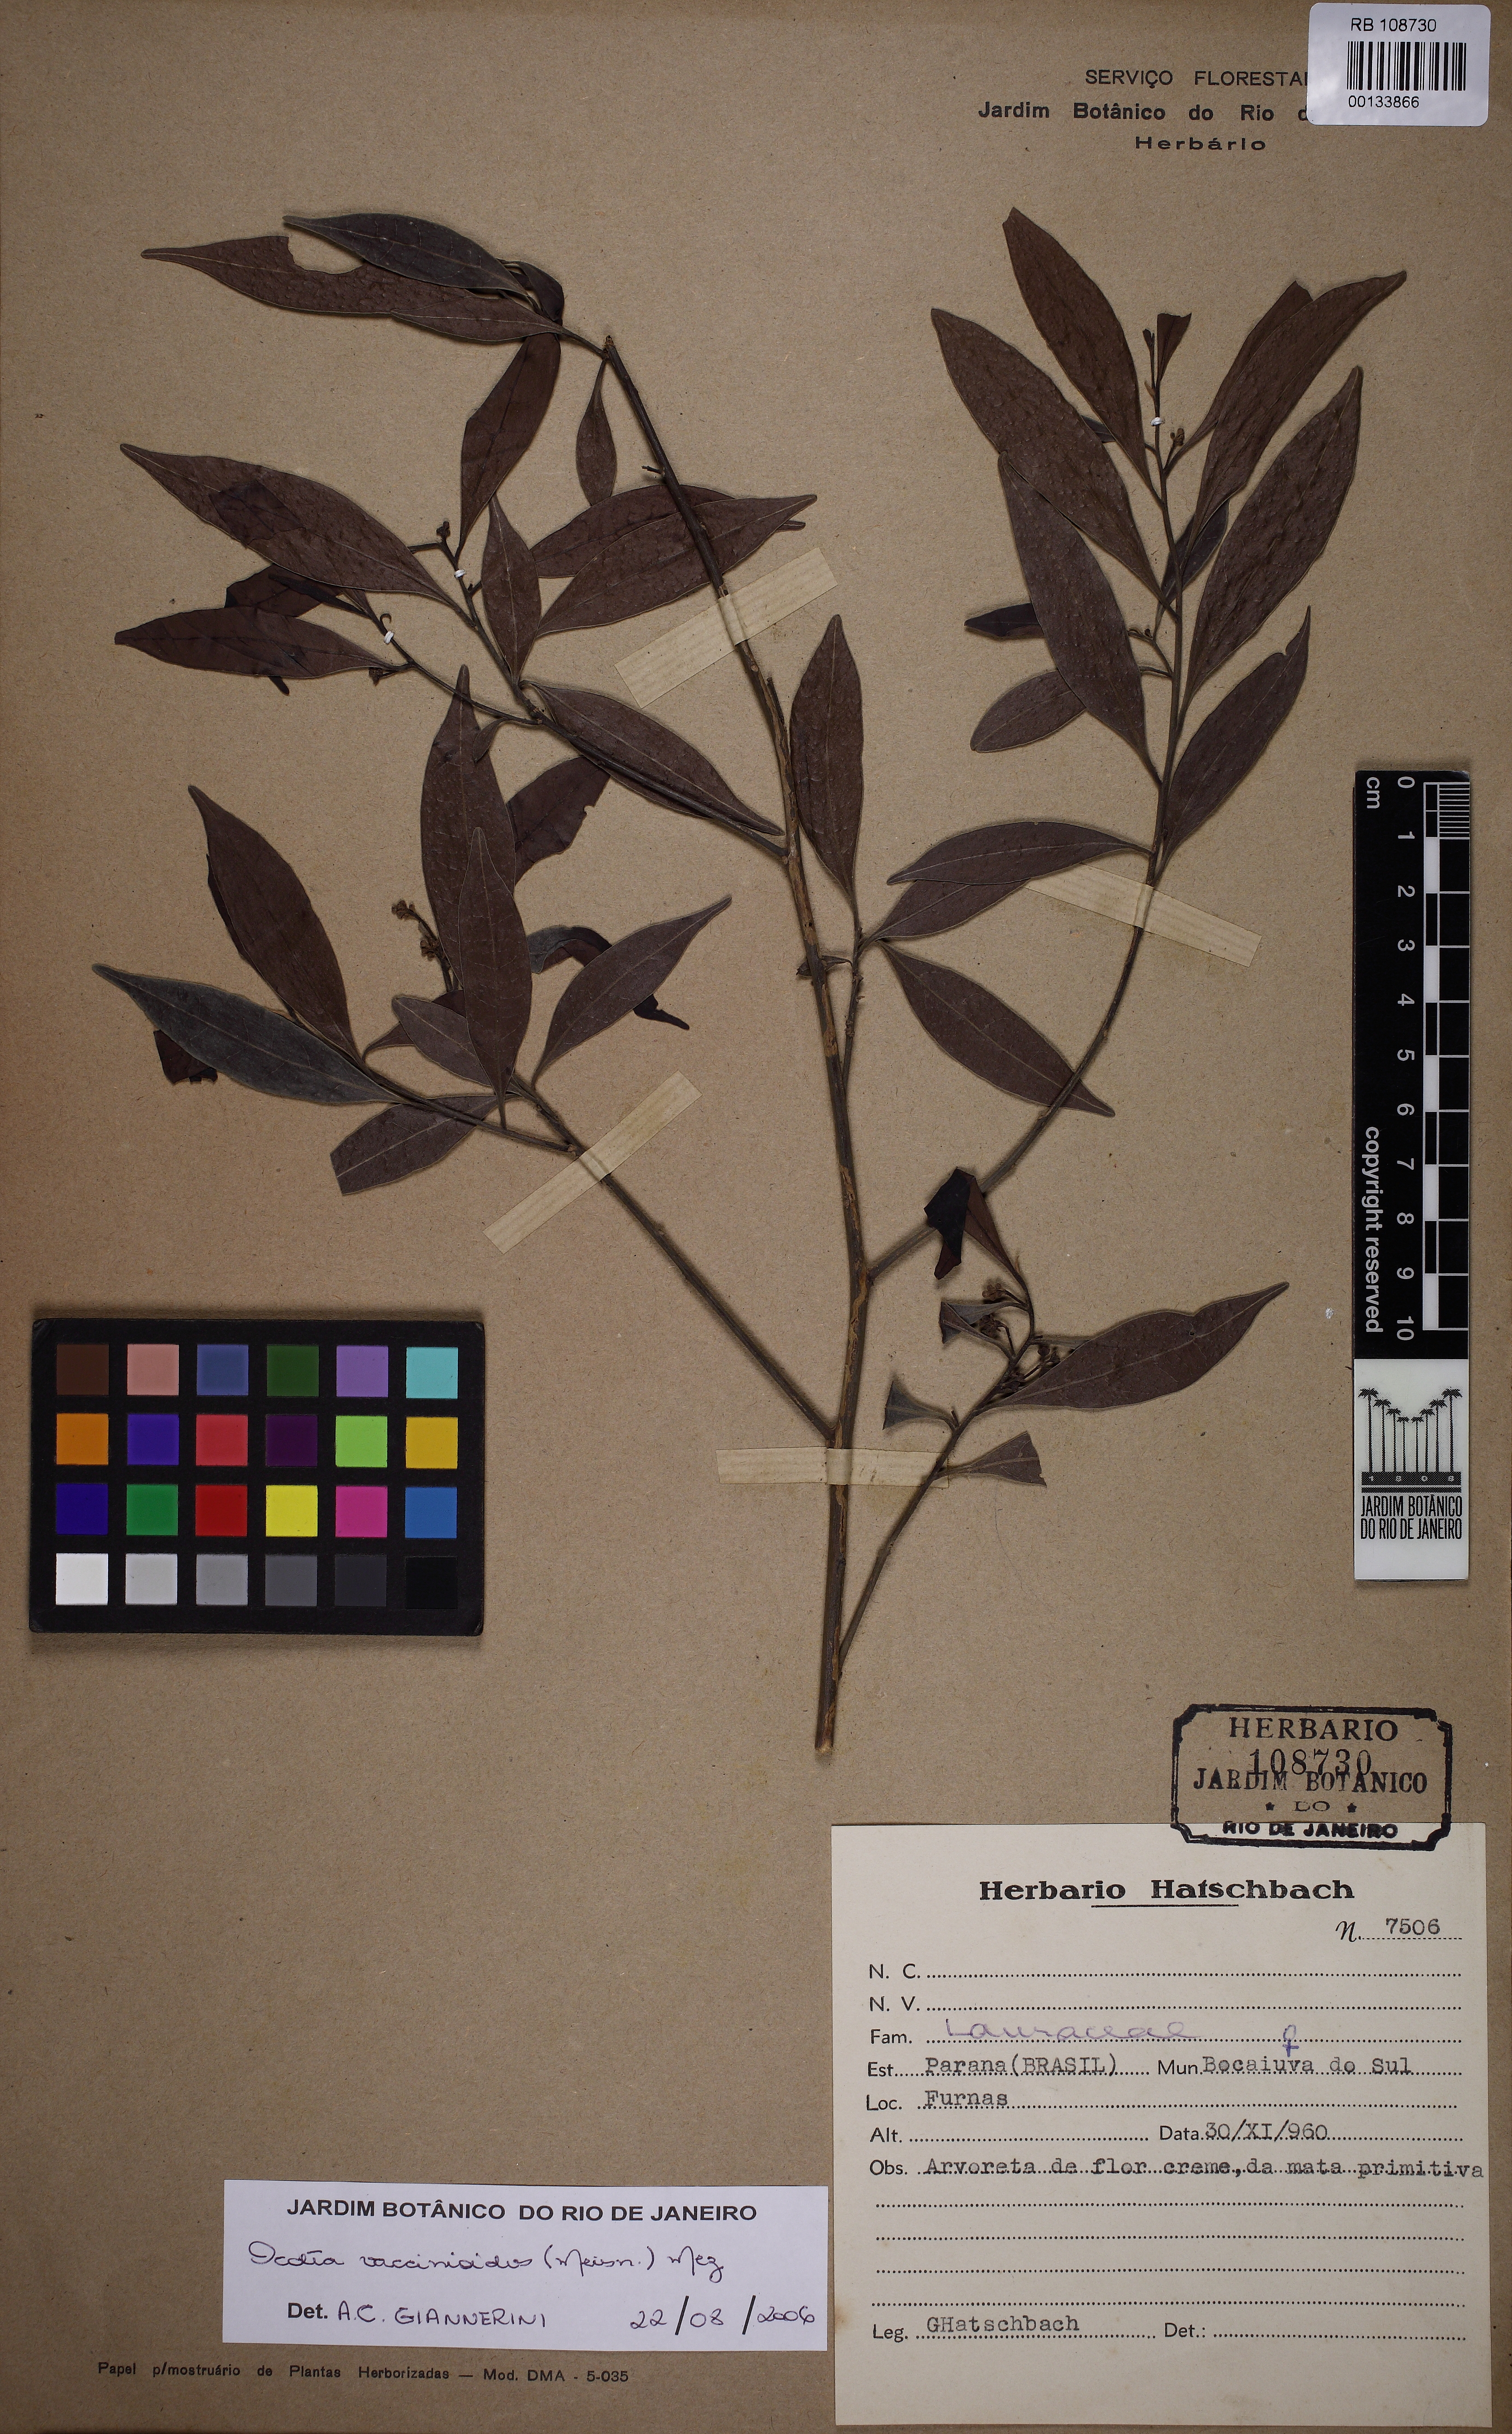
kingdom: Plantae
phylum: Tracheophyta
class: Magnoliopsida
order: Laurales
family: Lauraceae
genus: Ocotea
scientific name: Ocotea vaccinioides
